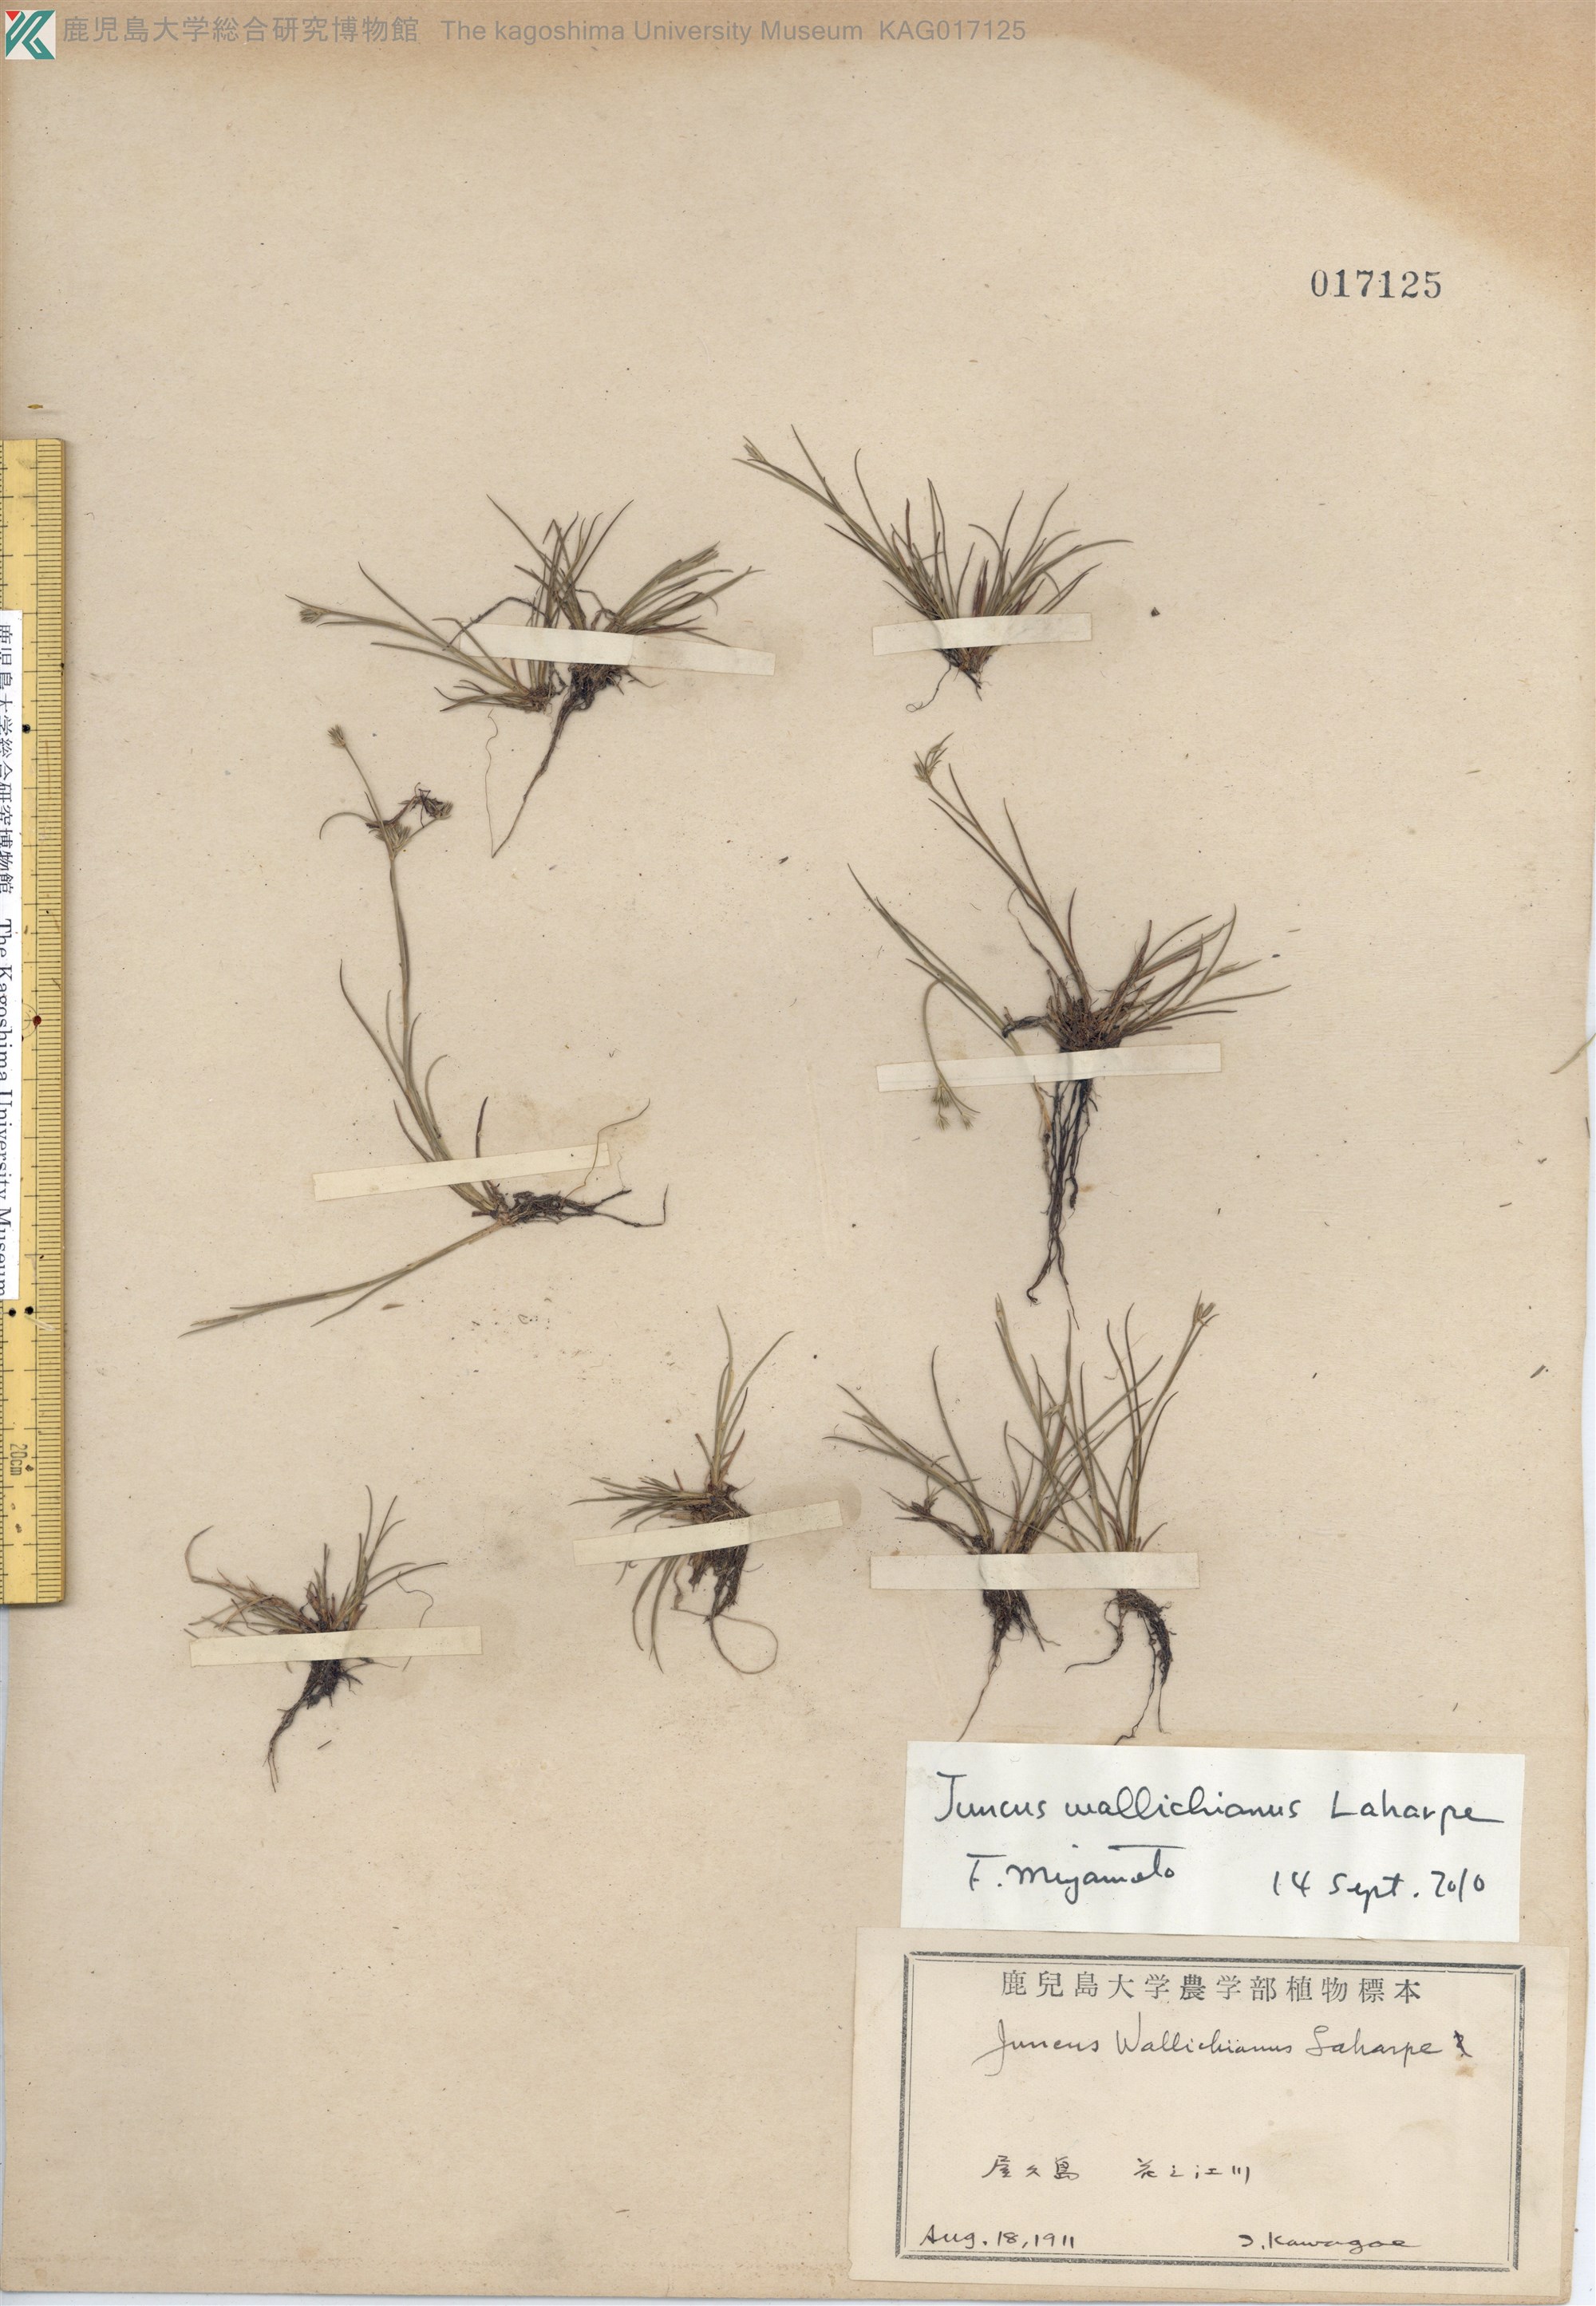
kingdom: Plantae
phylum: Tracheophyta
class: Liliopsida
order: Poales
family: Juncaceae
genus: Juncus
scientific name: Juncus wallichianus
